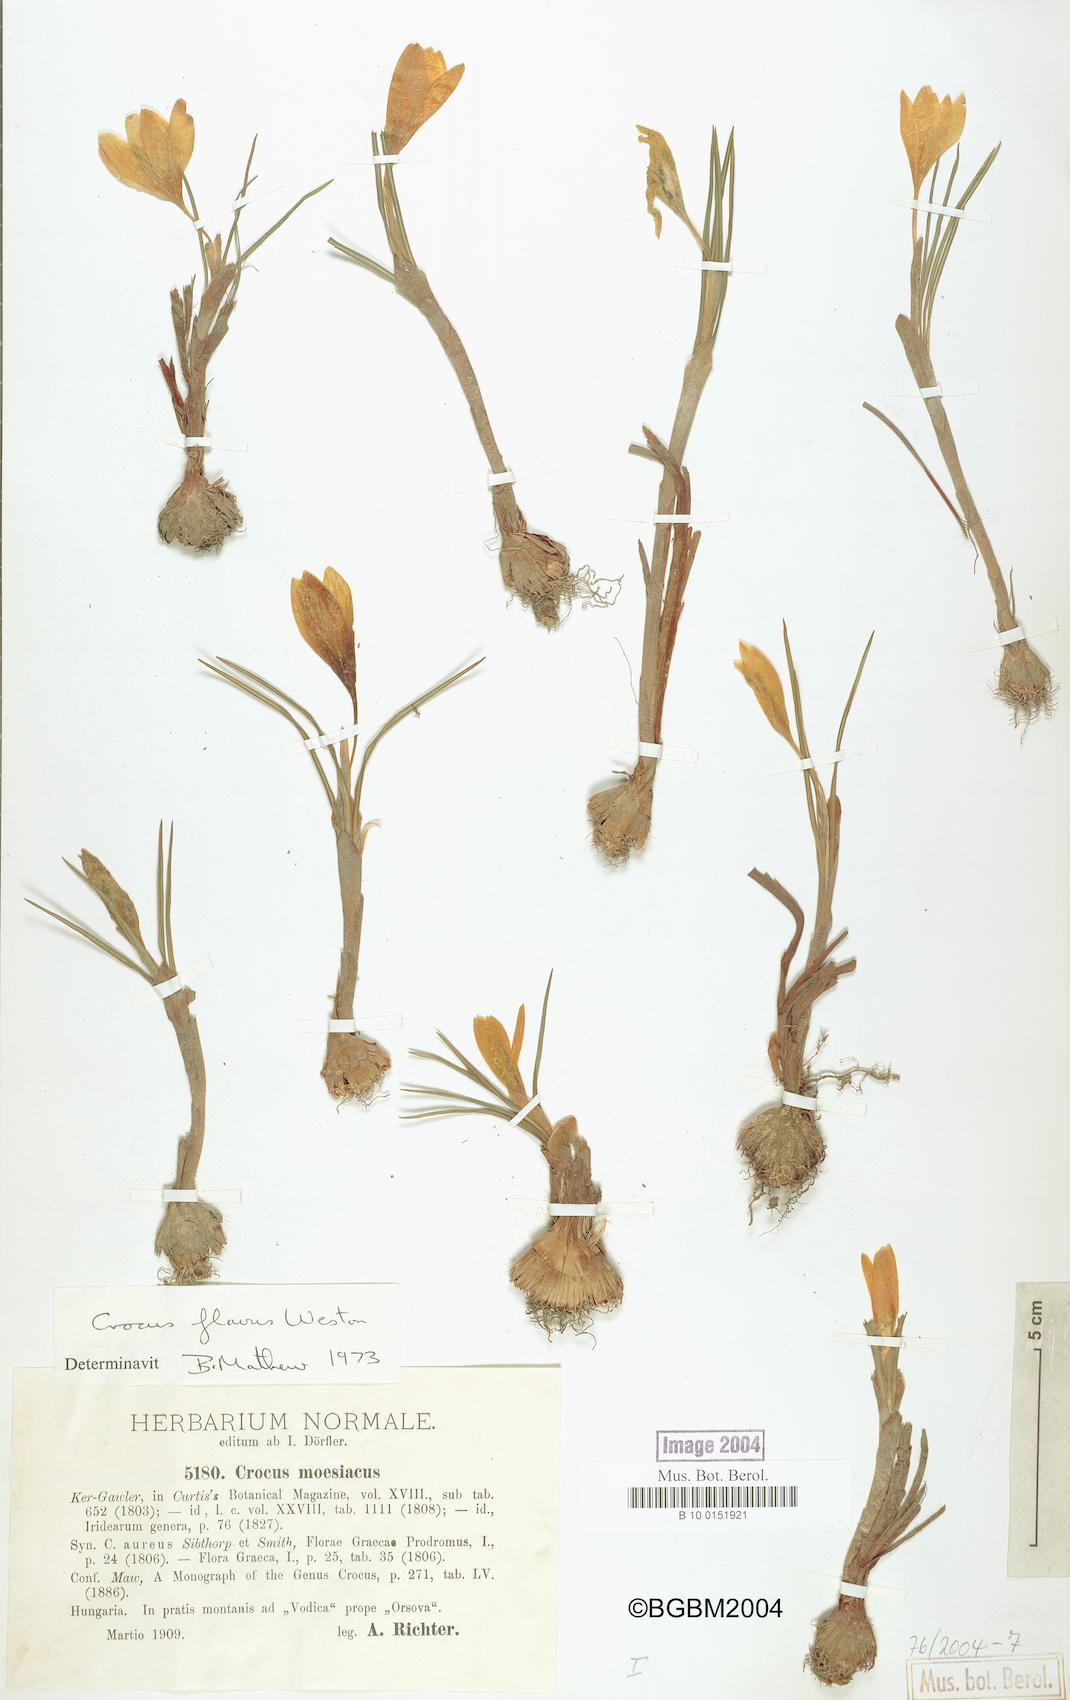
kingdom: Plantae
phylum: Tracheophyta
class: Liliopsida
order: Asparagales
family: Iridaceae
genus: Crocus
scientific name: Crocus flavus
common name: Yellow crocus
